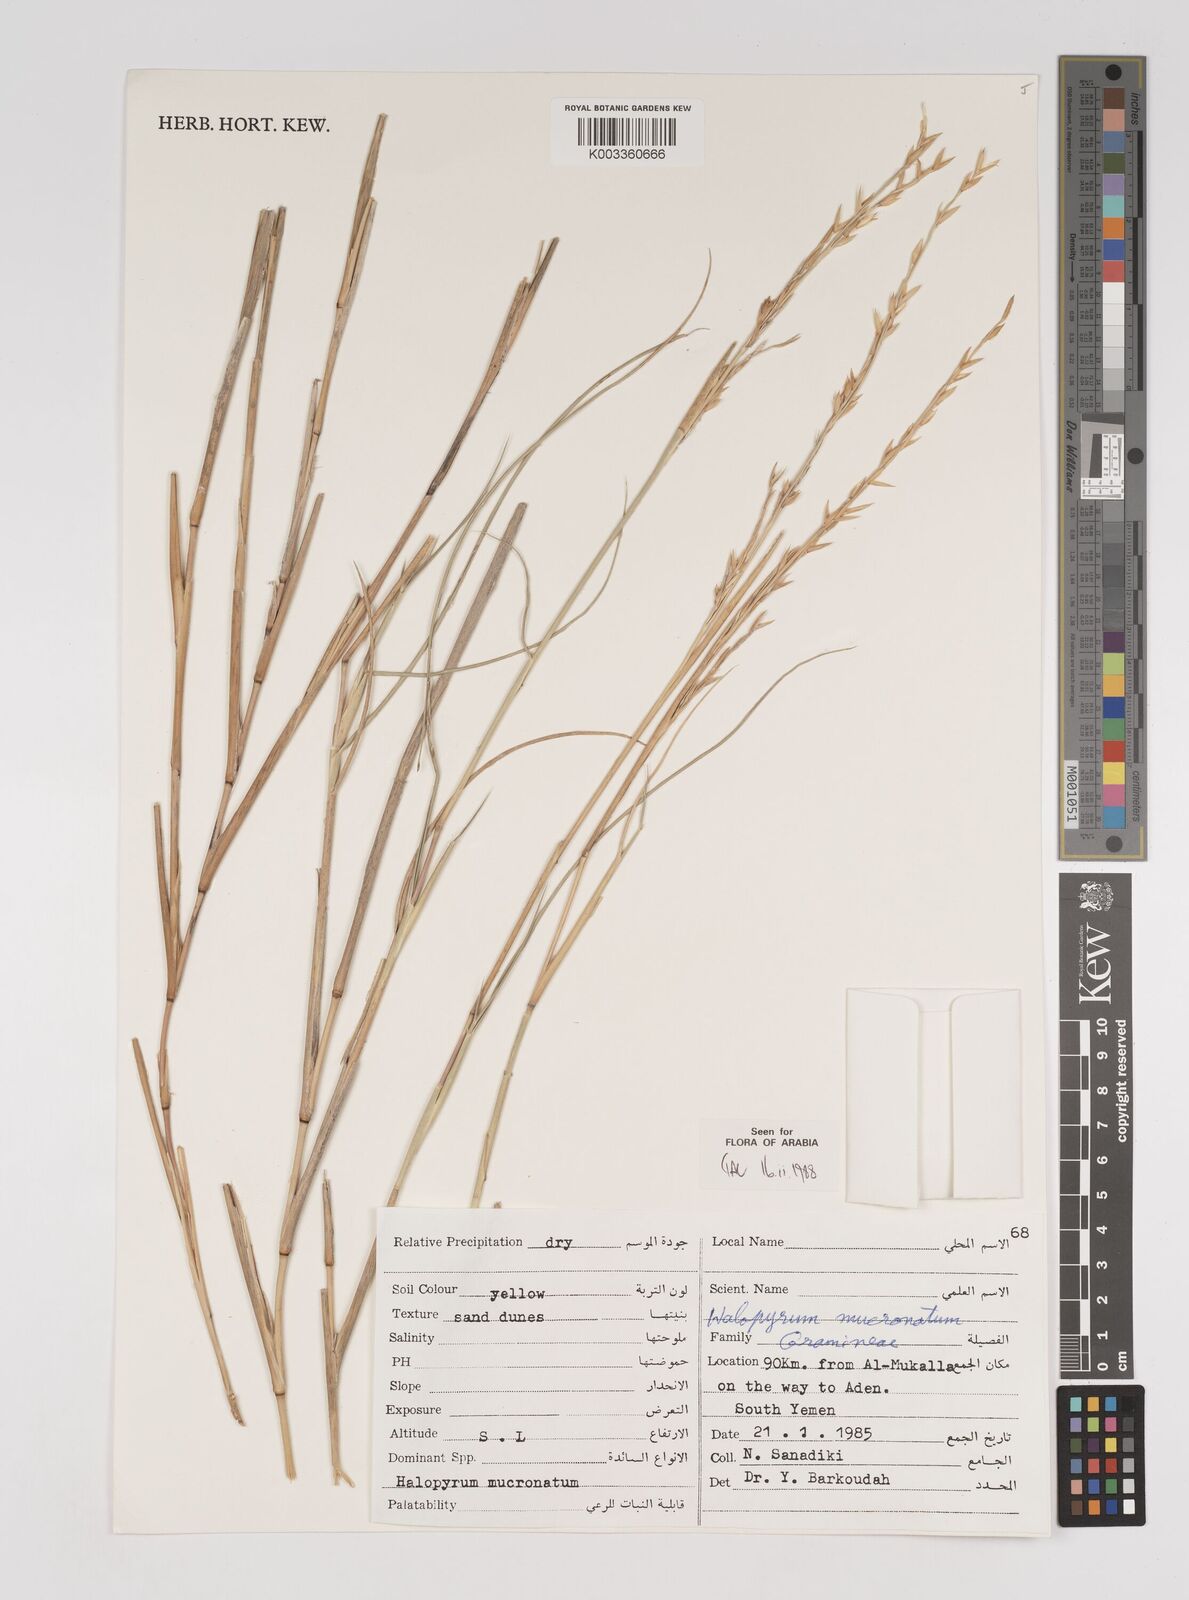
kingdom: Plantae
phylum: Tracheophyta
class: Liliopsida
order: Poales
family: Poaceae
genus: Halopyrum
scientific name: Halopyrum mucronatum
